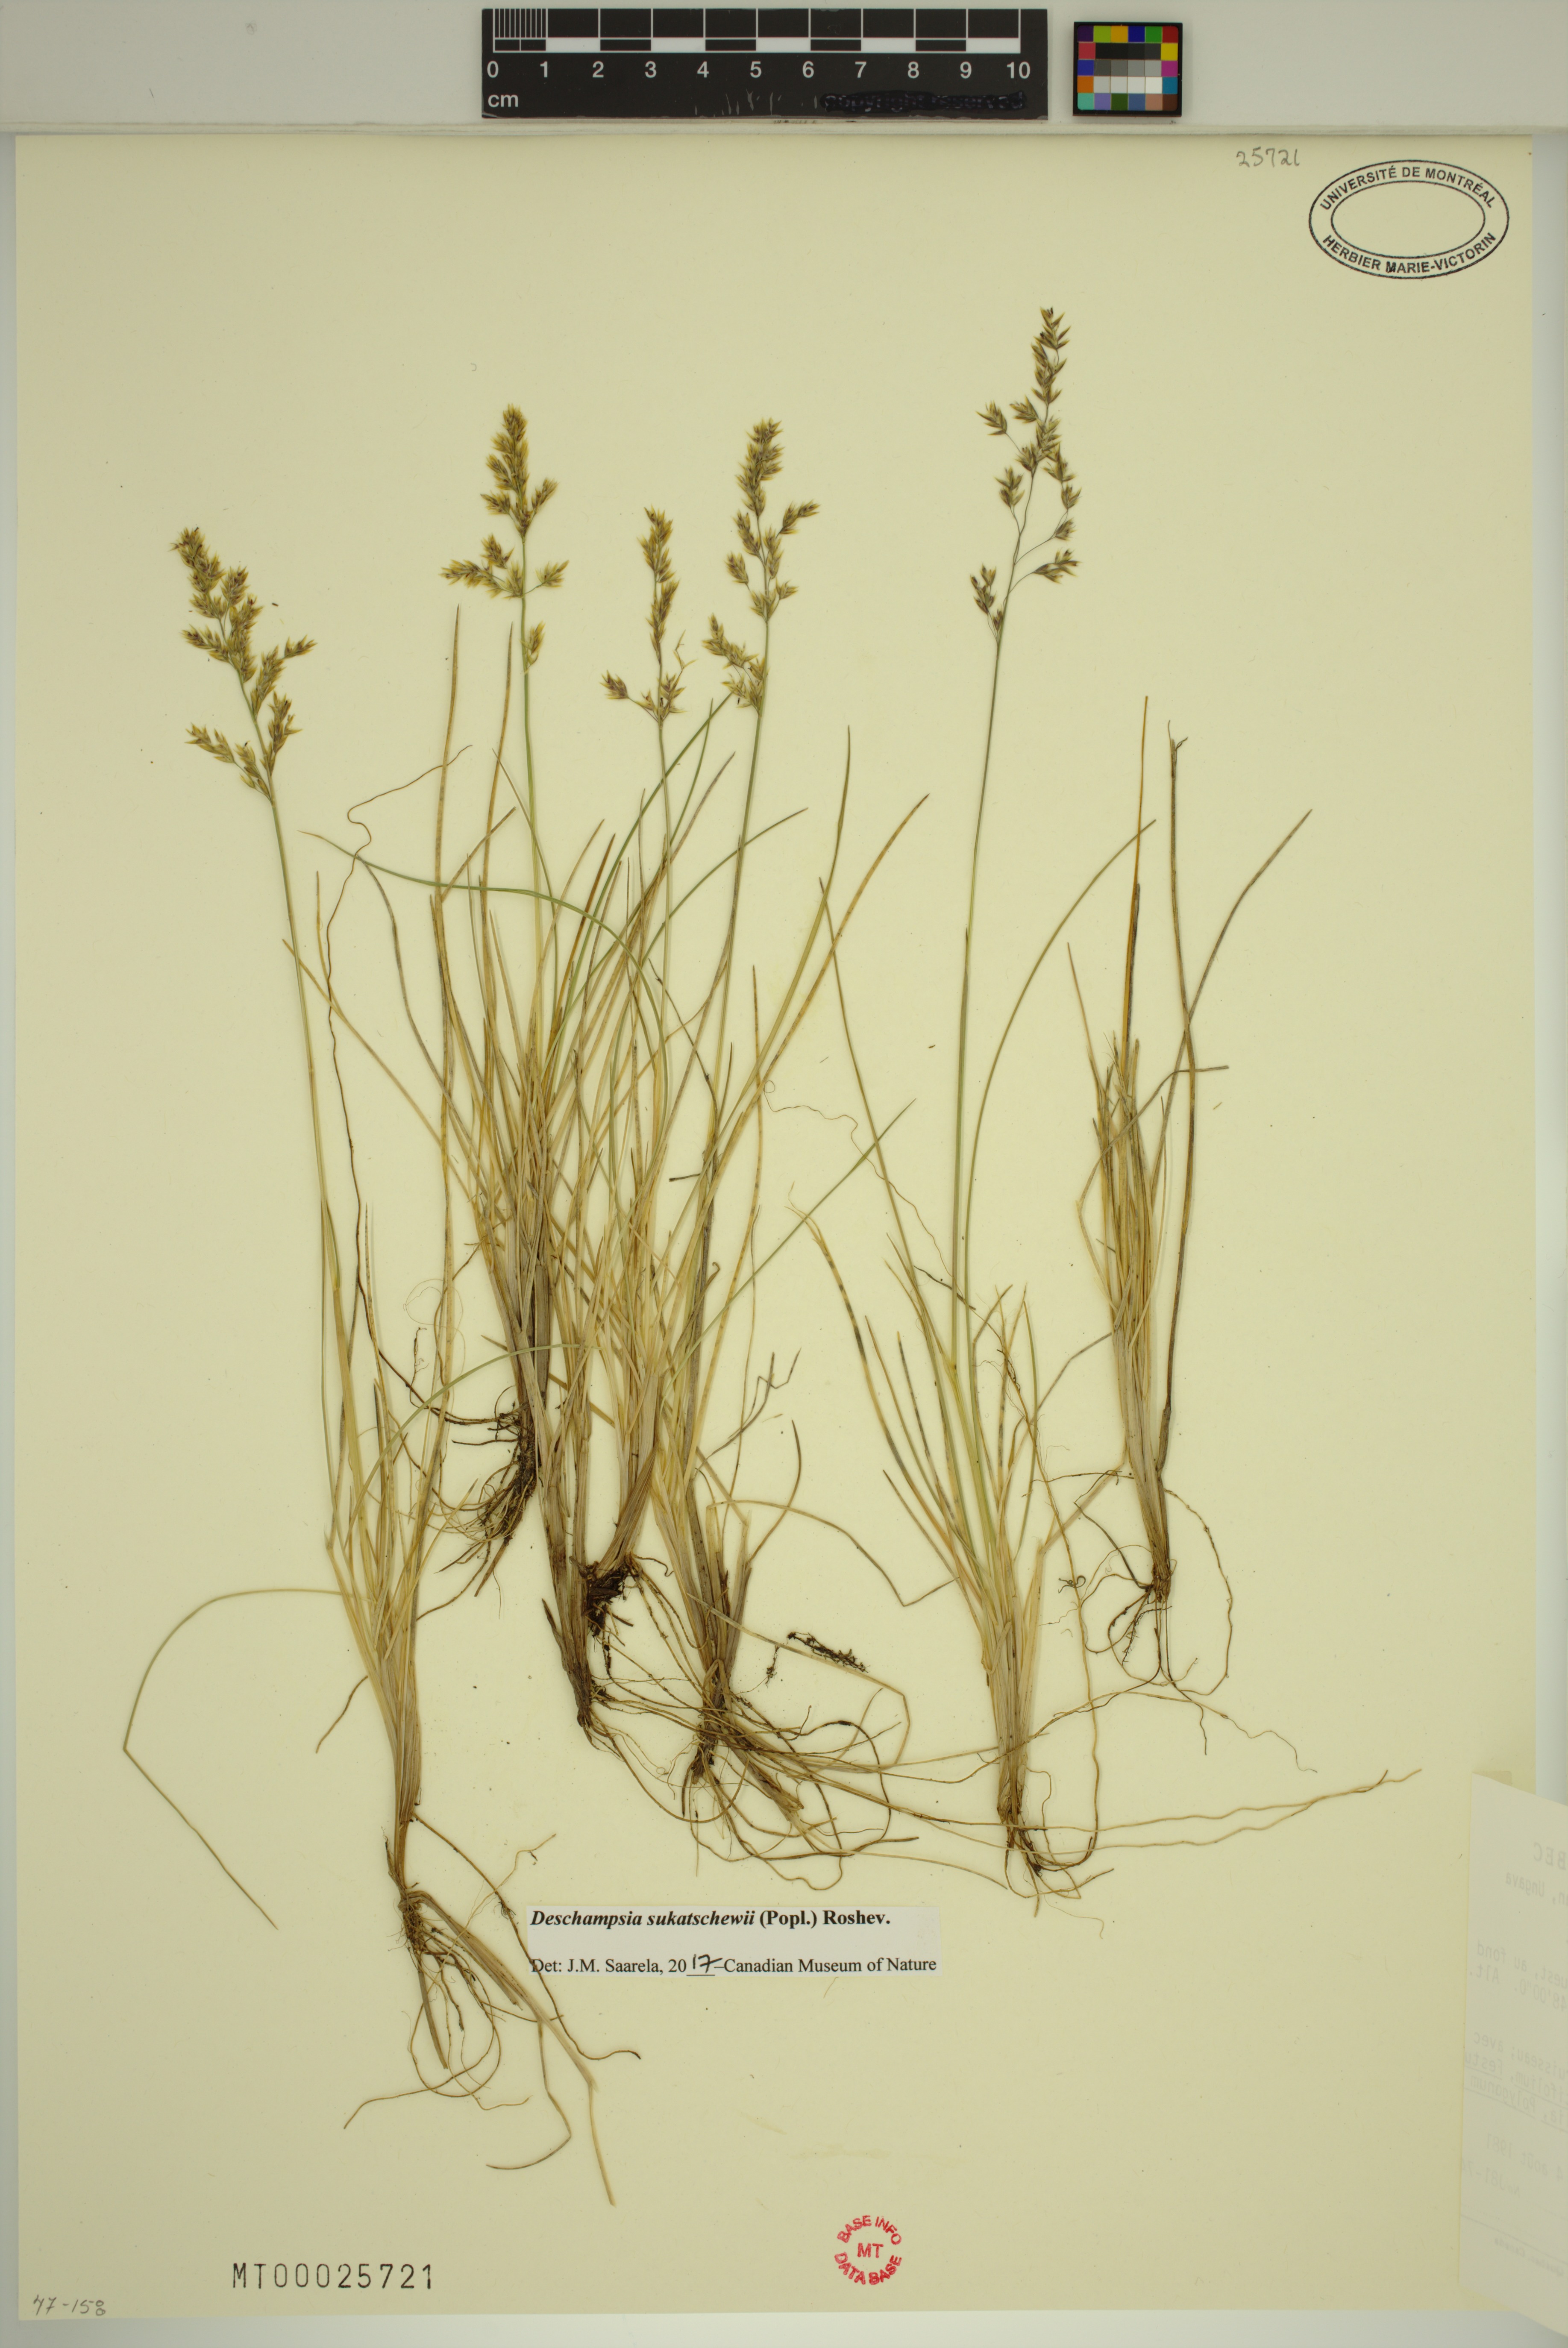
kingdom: Plantae
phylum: Tracheophyta
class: Liliopsida
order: Poales
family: Poaceae
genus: Deschampsia
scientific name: Deschampsia cespitosa
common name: Tufted hair-grass
